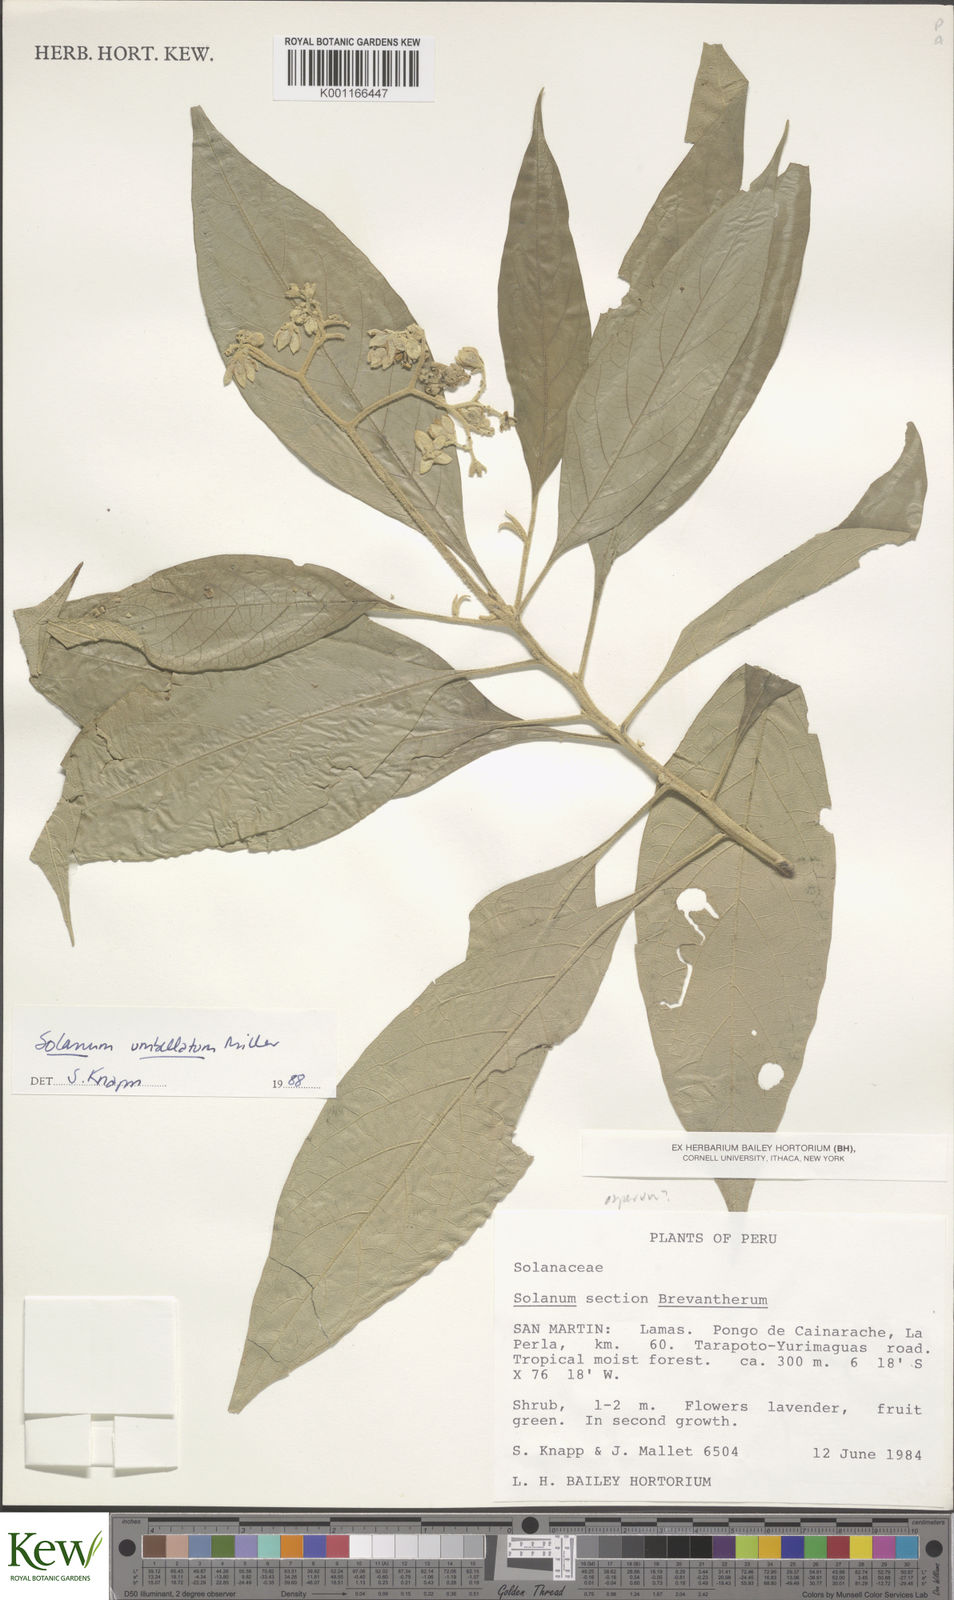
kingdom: Plantae
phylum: Tracheophyta
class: Magnoliopsida
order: Solanales
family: Solanaceae
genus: Solanum
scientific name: Solanum umbellatum
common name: Nightshade
